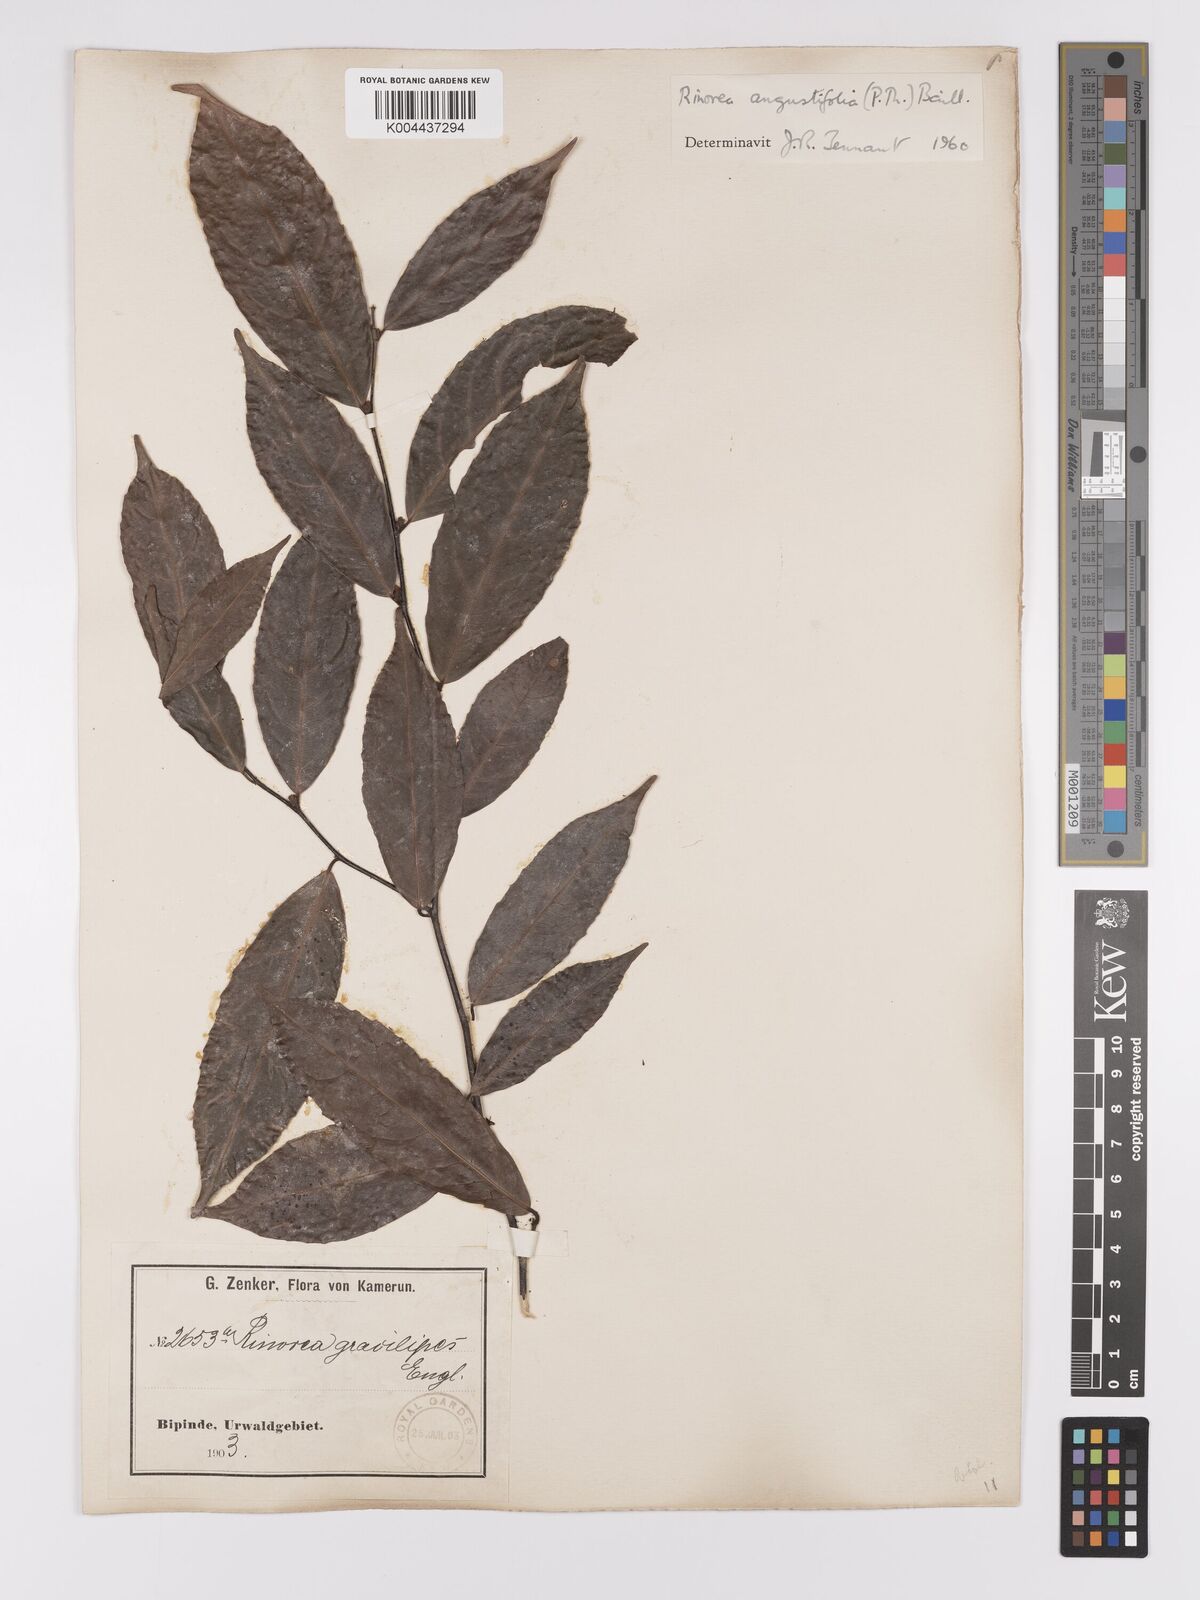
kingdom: Plantae
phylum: Tracheophyta
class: Magnoliopsida
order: Malpighiales
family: Violaceae
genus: Rinorea
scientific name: Rinorea angustifolia
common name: White violet-bush
